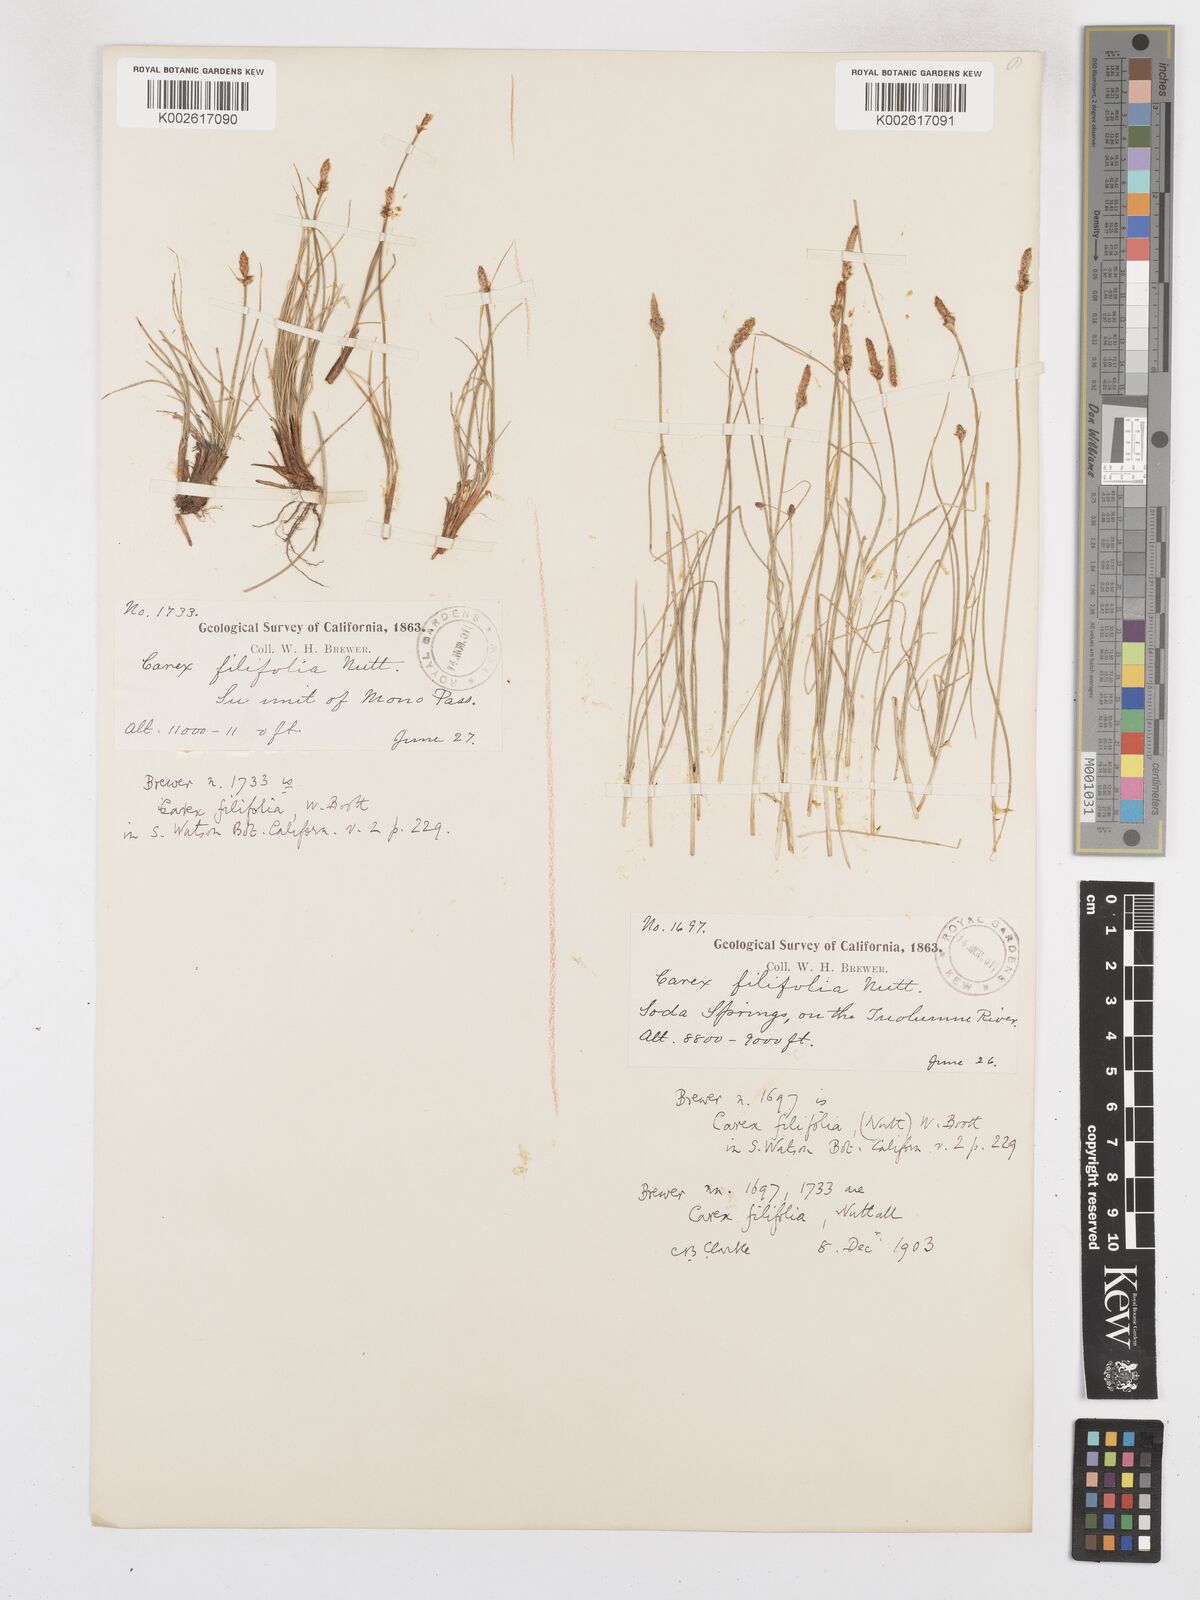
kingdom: Plantae
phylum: Tracheophyta
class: Liliopsida
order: Poales
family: Cyperaceae
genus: Carex
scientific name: Carex glossostigma
